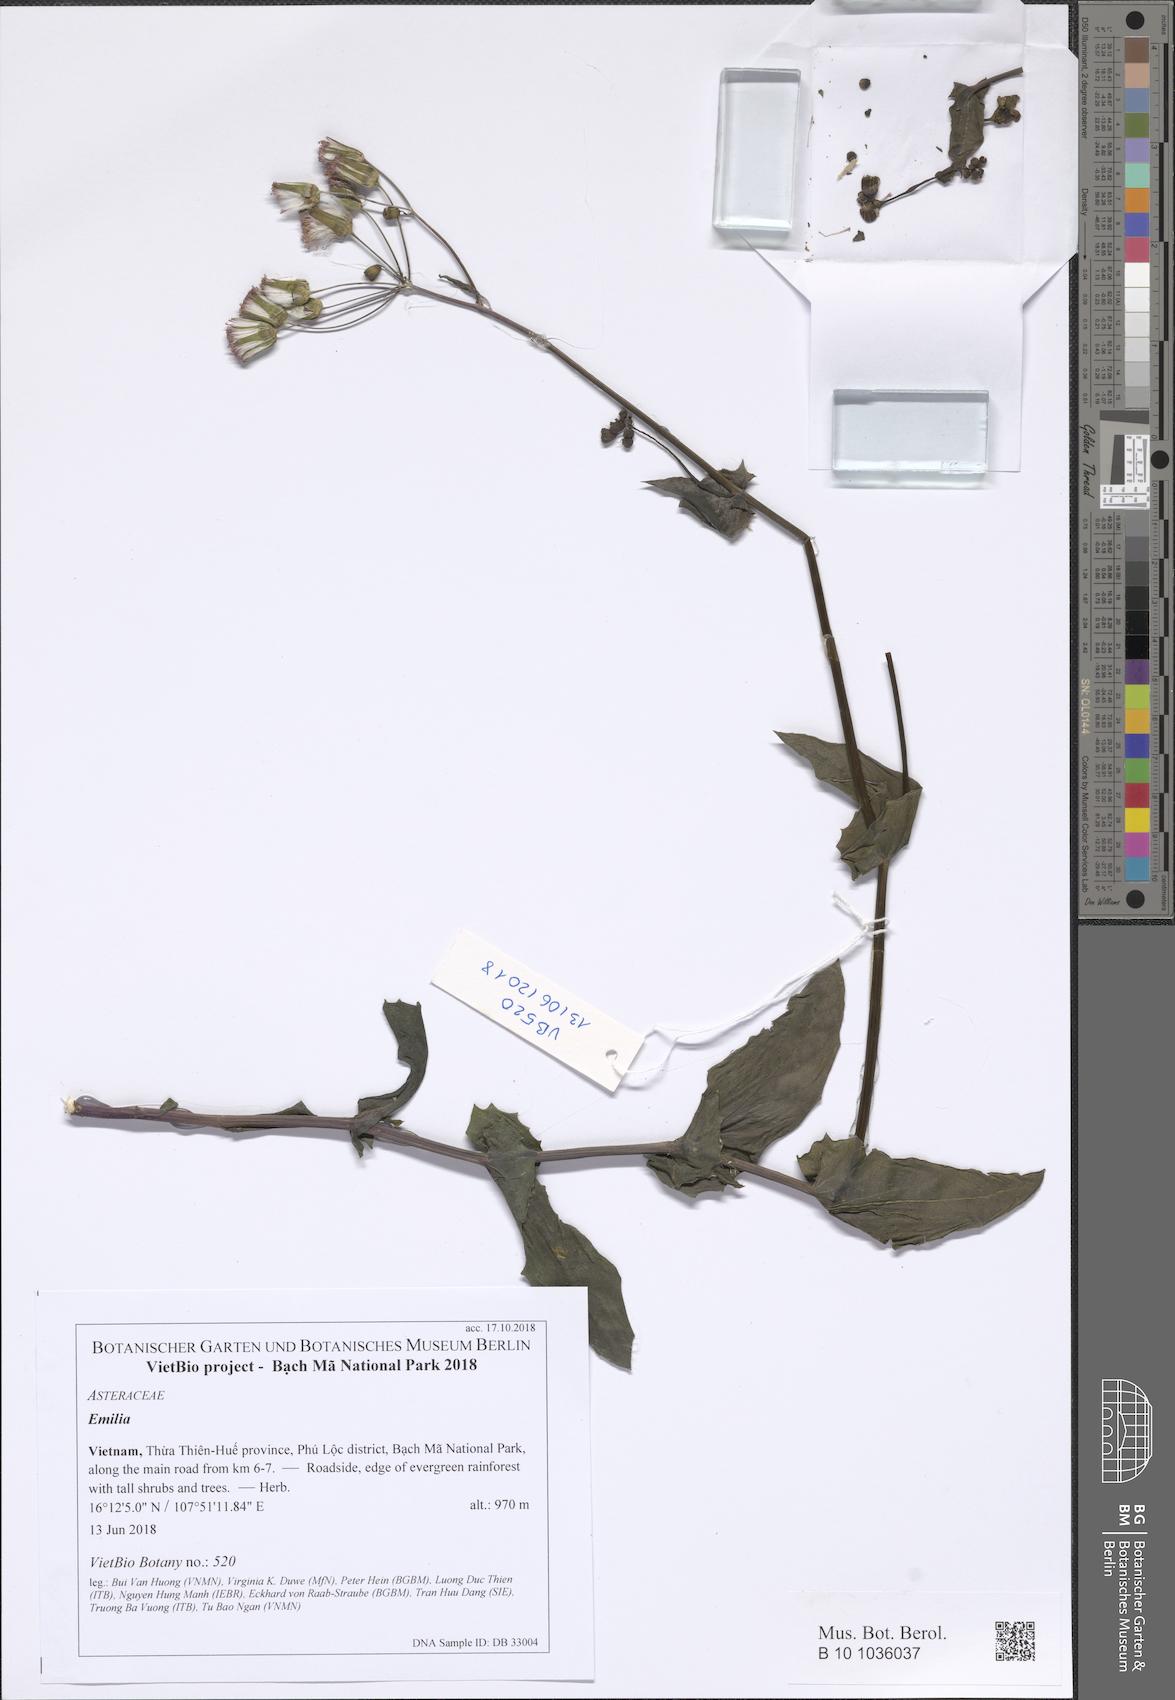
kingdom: Plantae
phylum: Tracheophyta
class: Magnoliopsida
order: Asterales
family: Asteraceae
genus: Emilia
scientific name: Emilia
